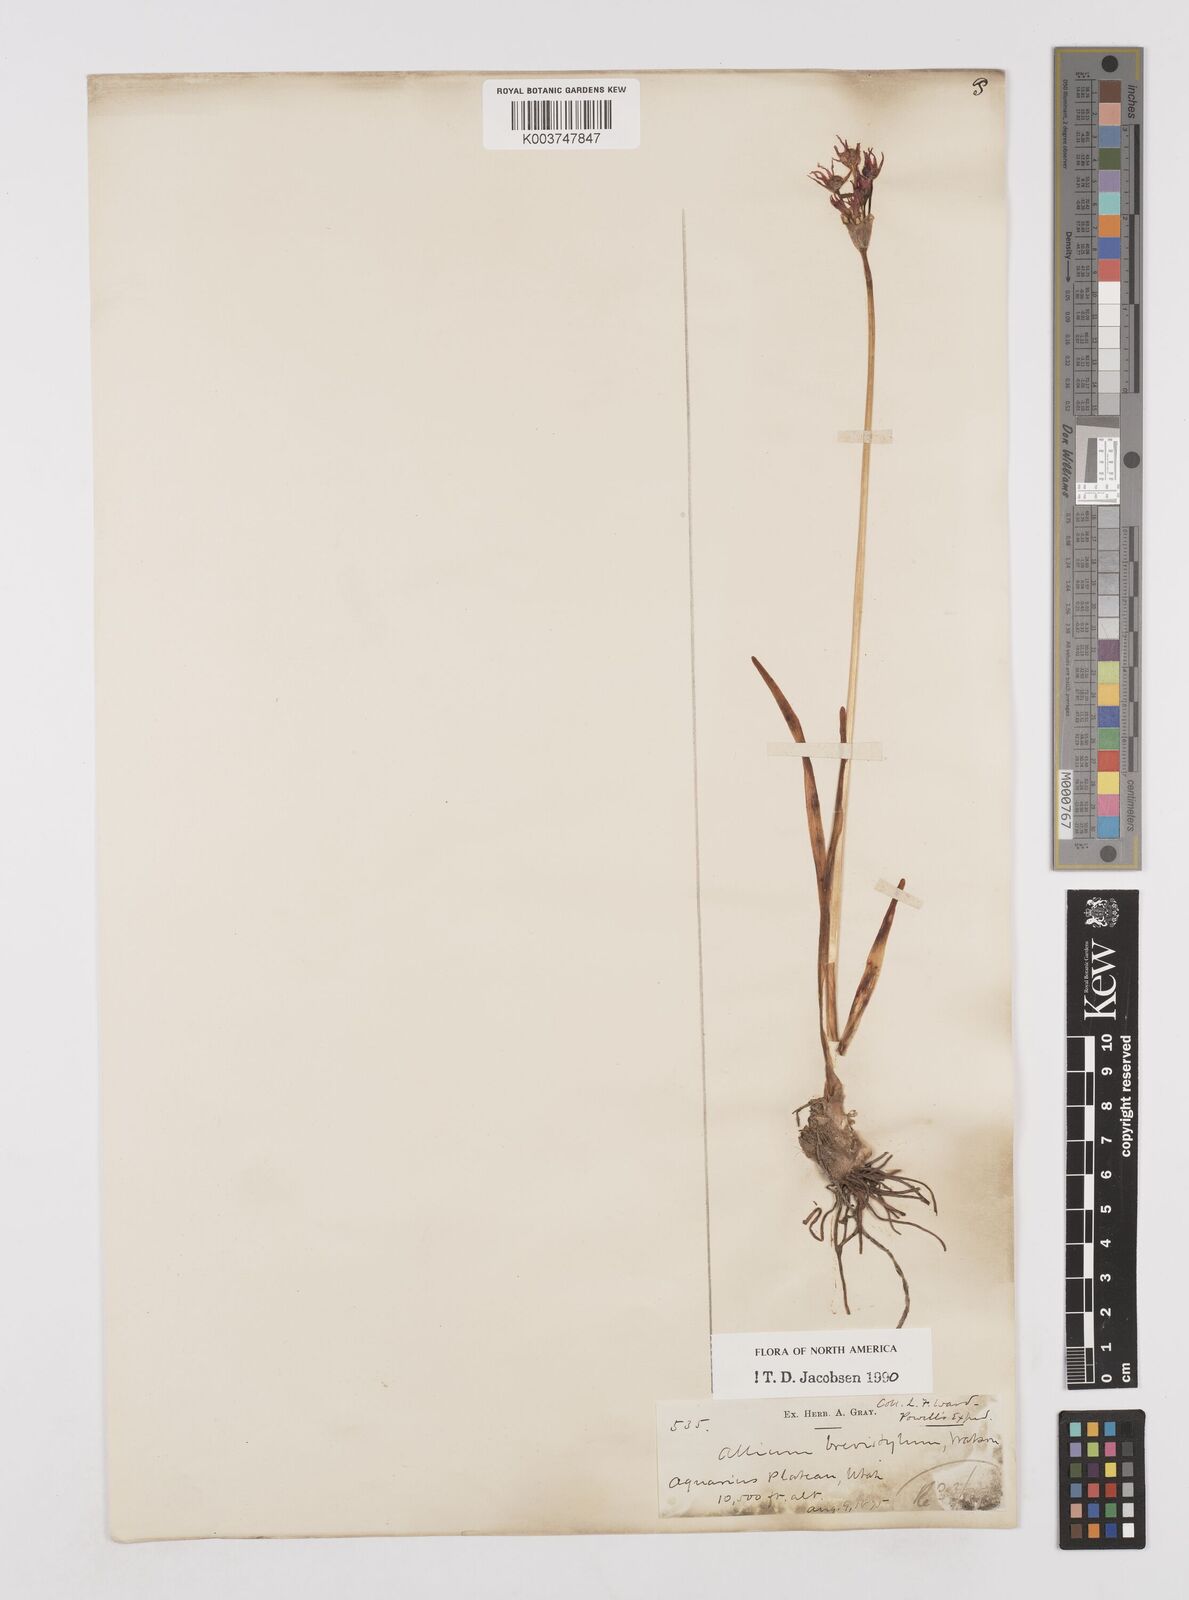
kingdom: Plantae
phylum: Tracheophyta
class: Liliopsida
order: Asparagales
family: Amaryllidaceae
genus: Allium
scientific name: Allium brevistylum
